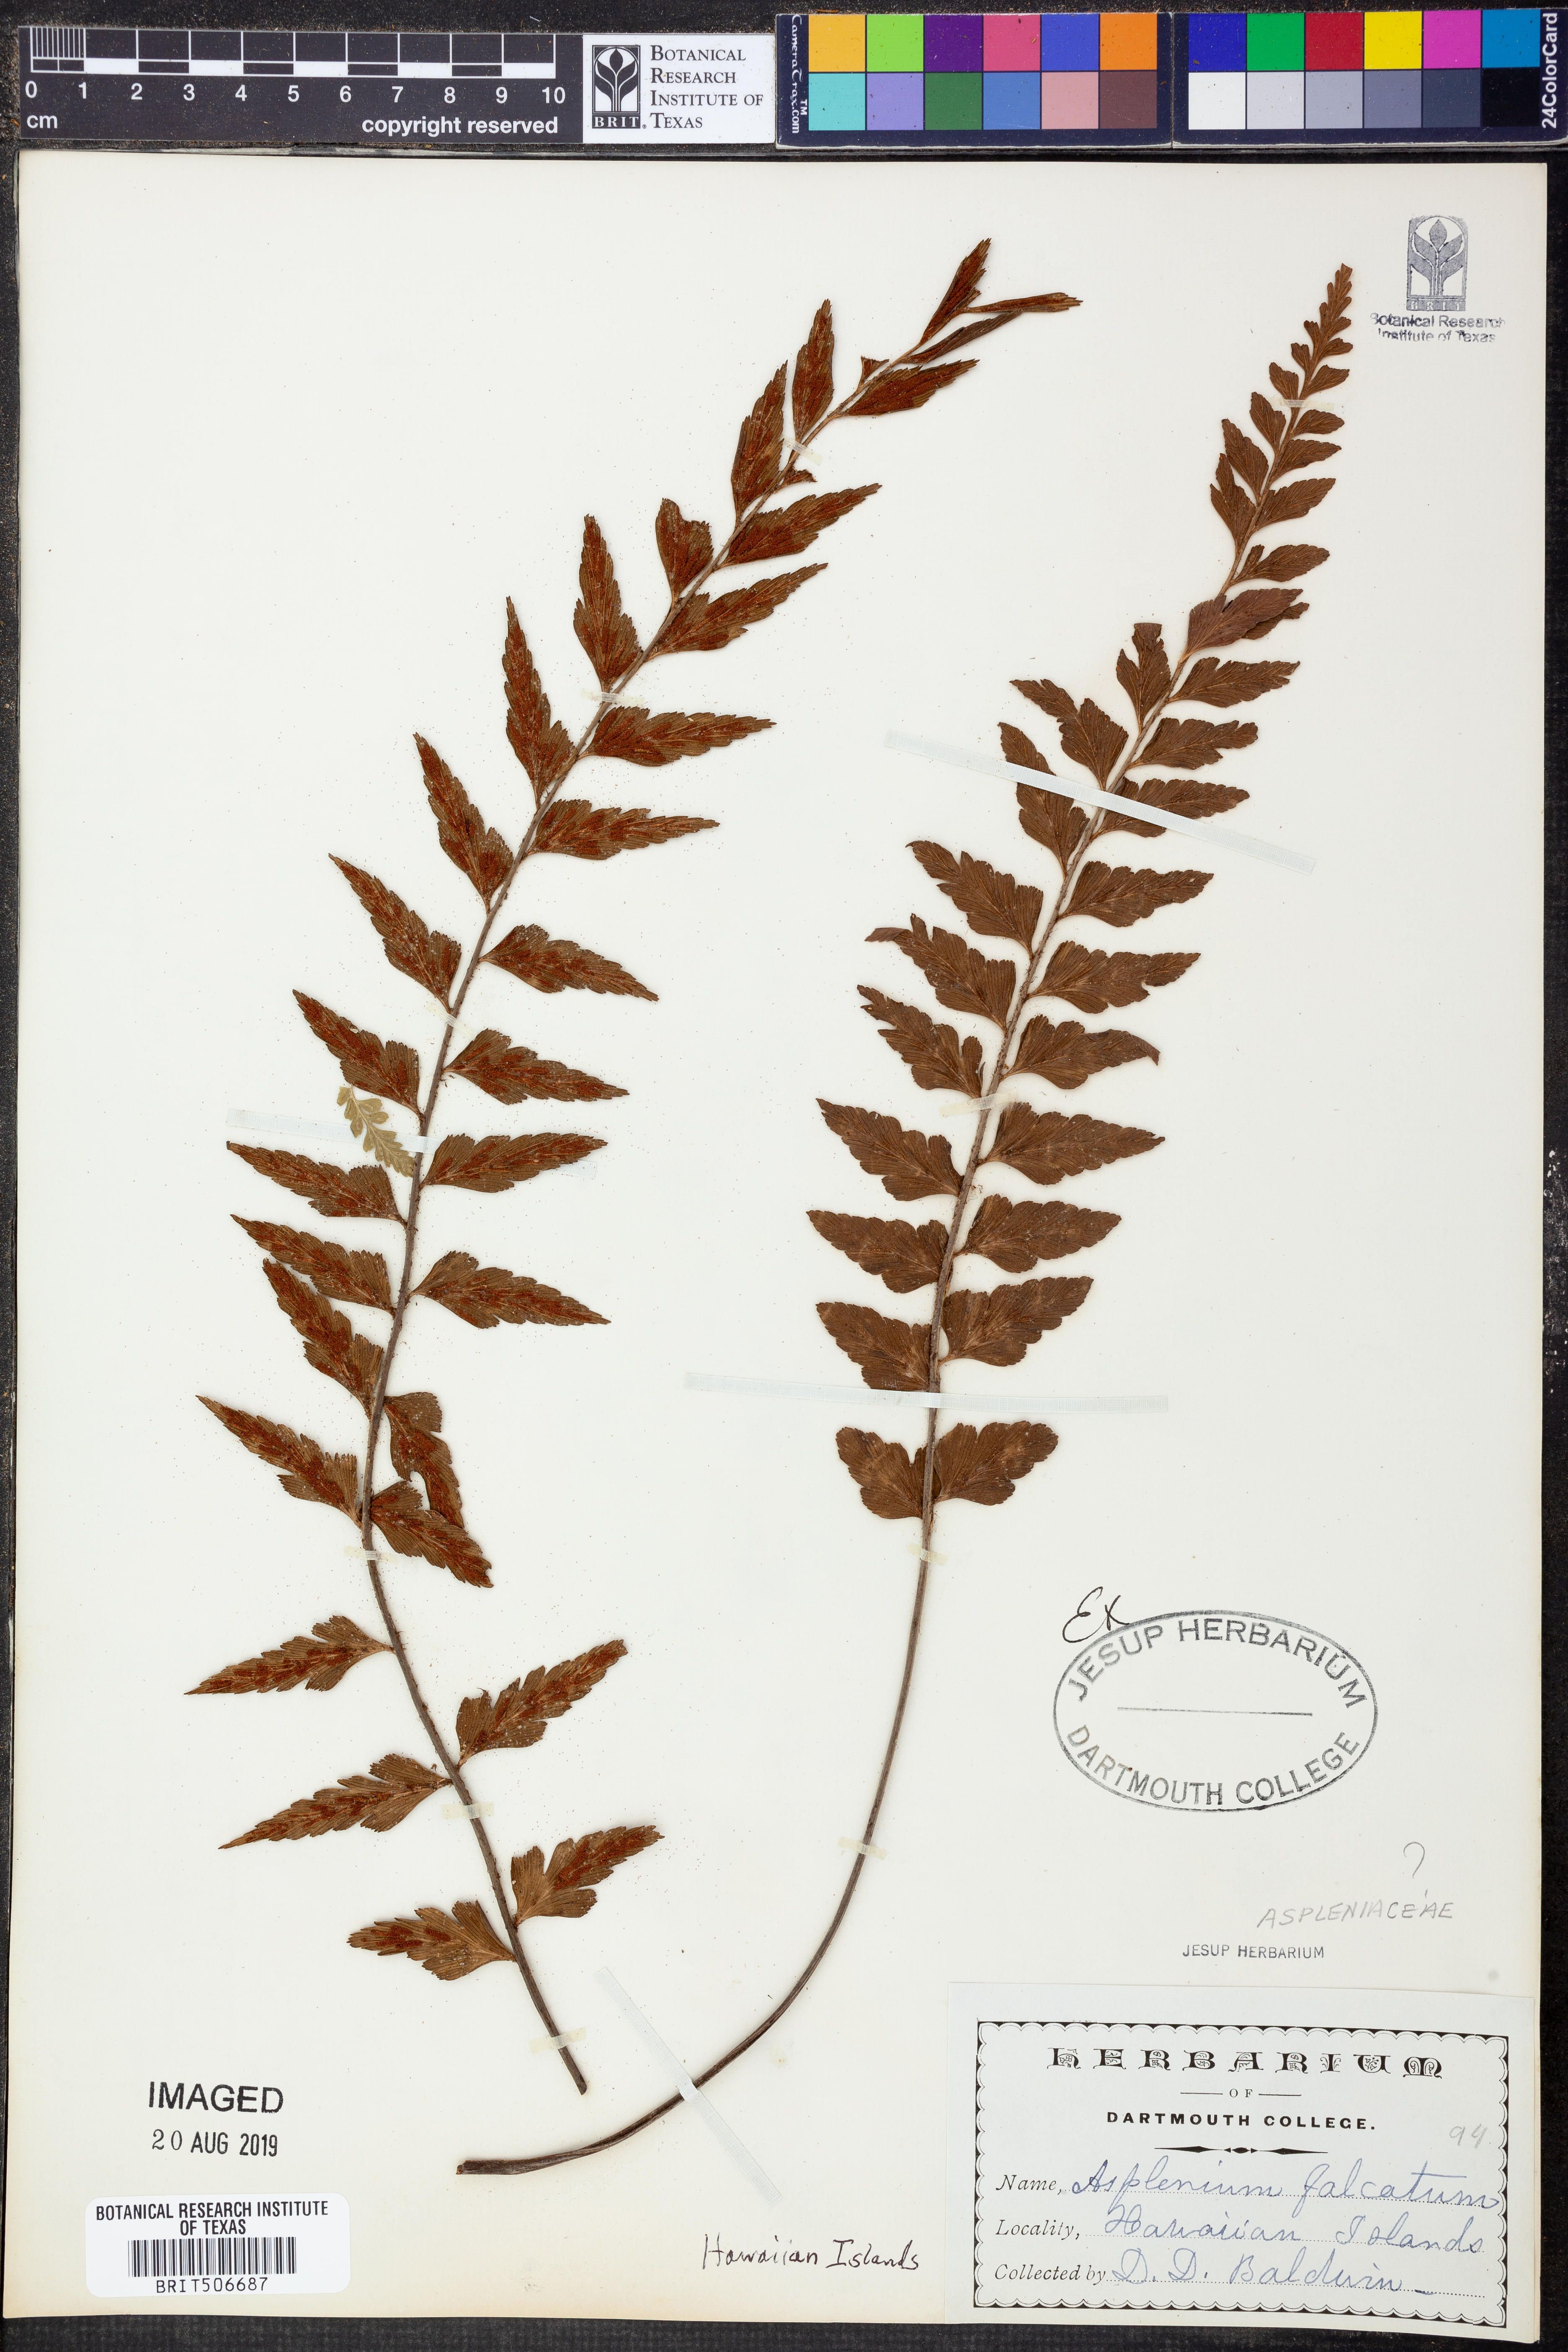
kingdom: Plantae
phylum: Tracheophyta
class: Polypodiopsida
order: Polypodiales
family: Aspleniaceae
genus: Asplenium
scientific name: Asplenium falcatum
